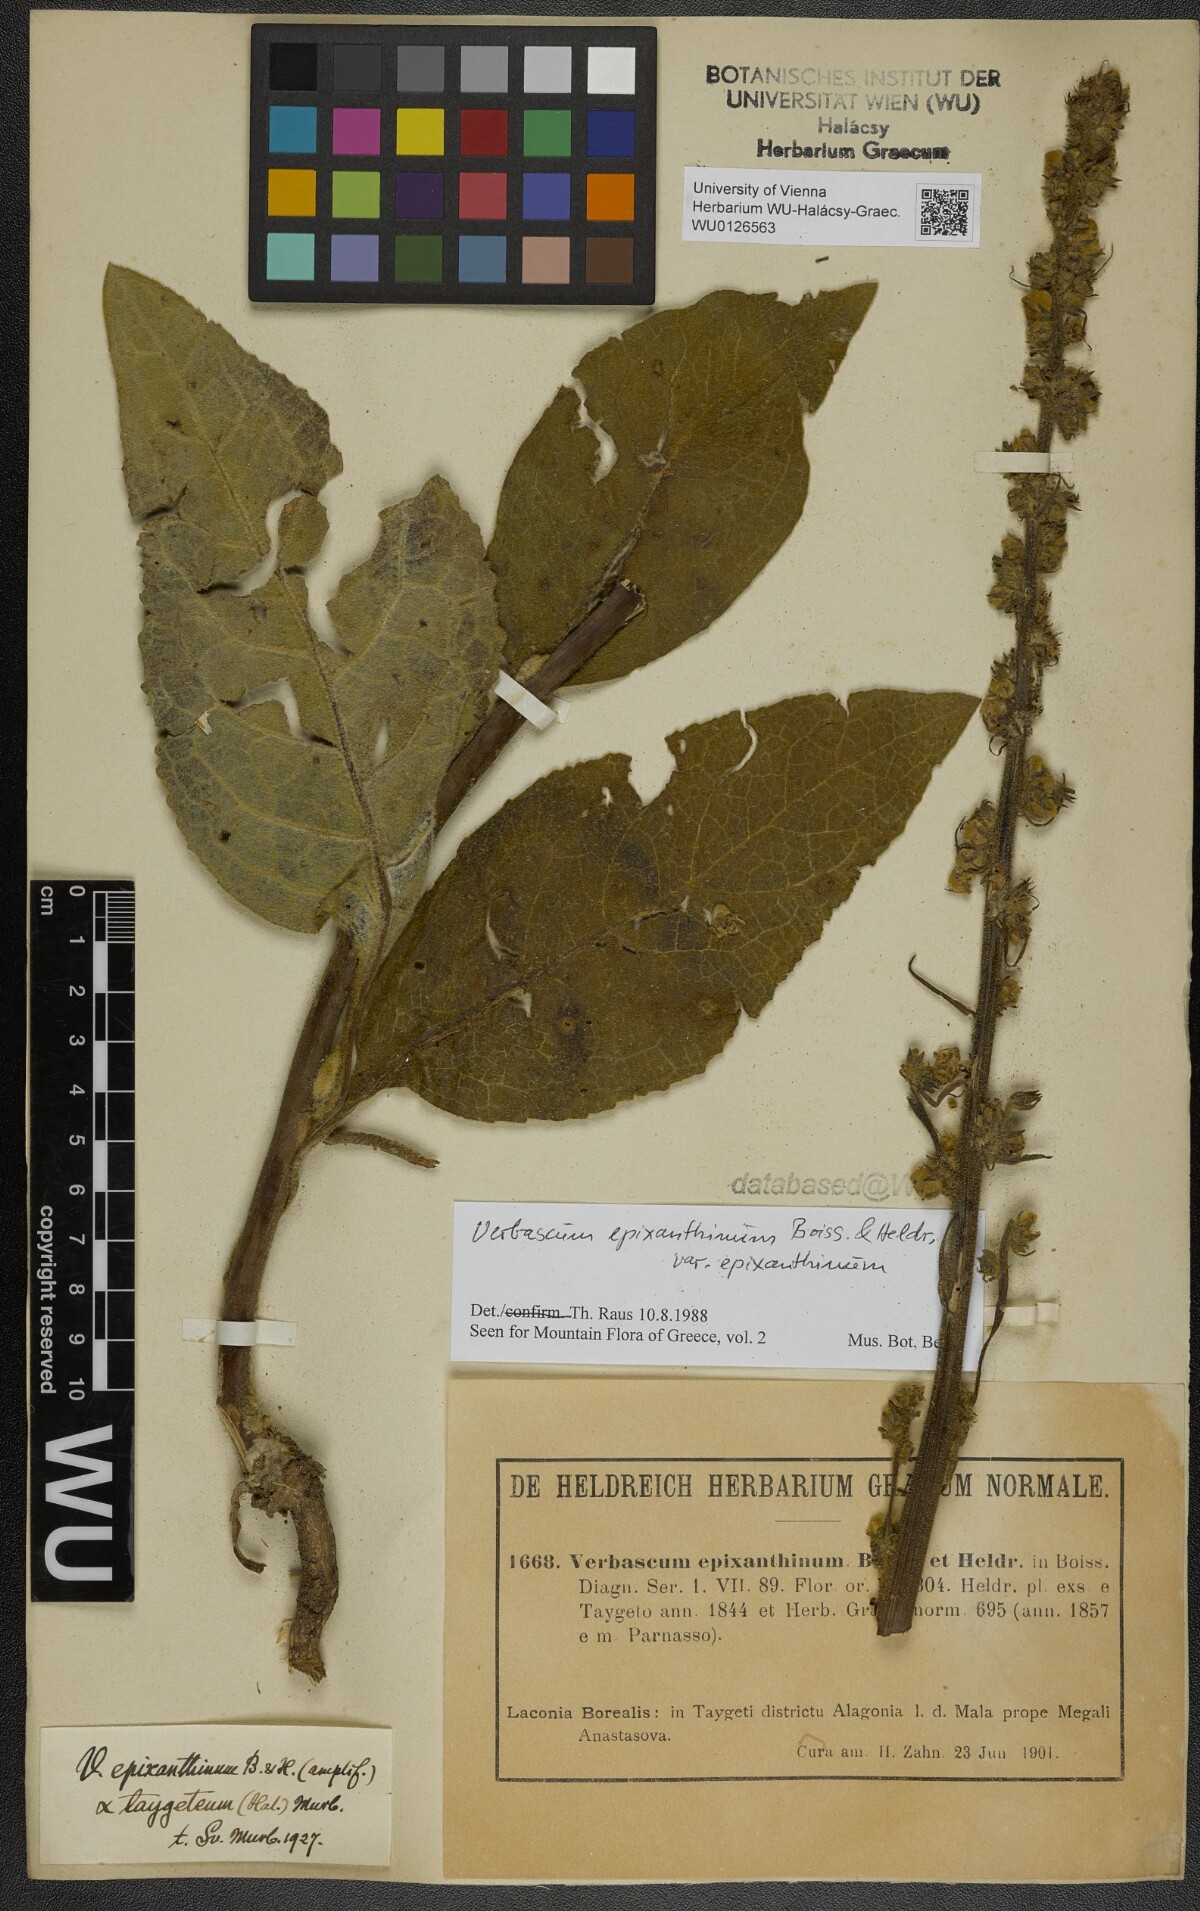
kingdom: Plantae
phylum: Tracheophyta
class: Magnoliopsida
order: Lamiales
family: Scrophulariaceae
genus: Verbascum
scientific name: Verbascum epixanthinum
